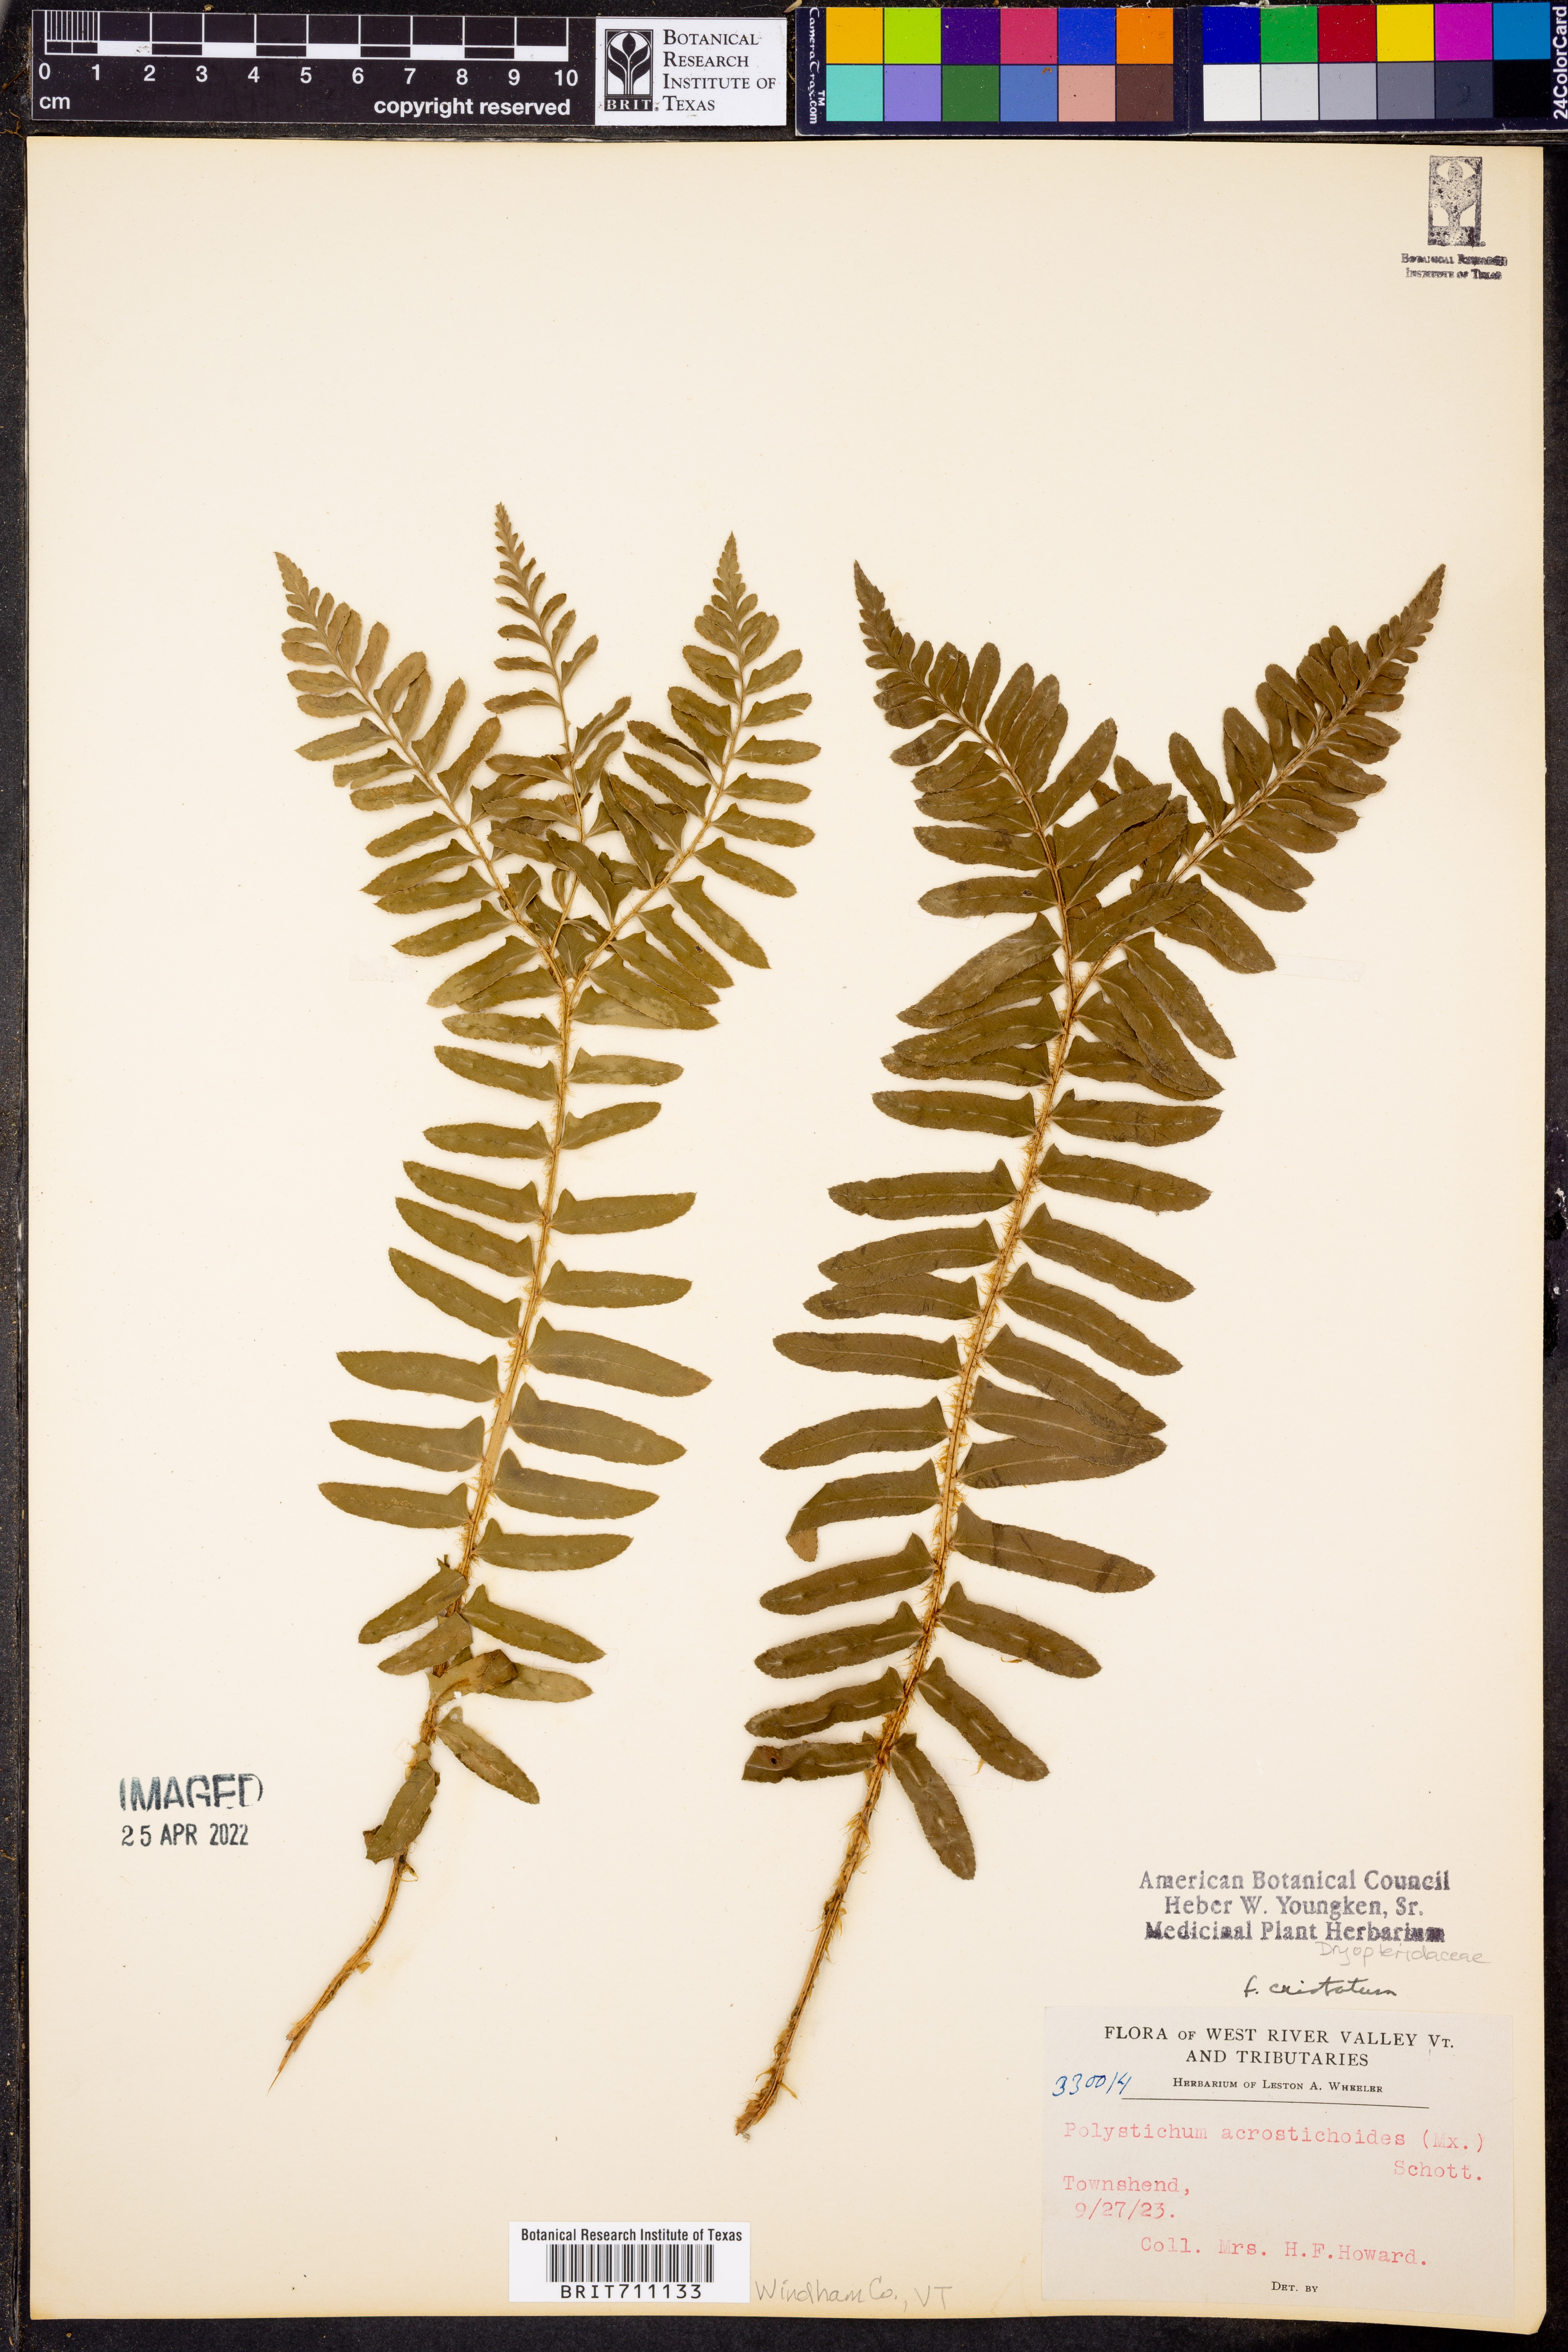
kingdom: Plantae
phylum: Tracheophyta
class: Polypodiopsida
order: Polypodiales
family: Dryopteridaceae
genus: Polystichum
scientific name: Polystichum acrostichoides
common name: Christmas fern
